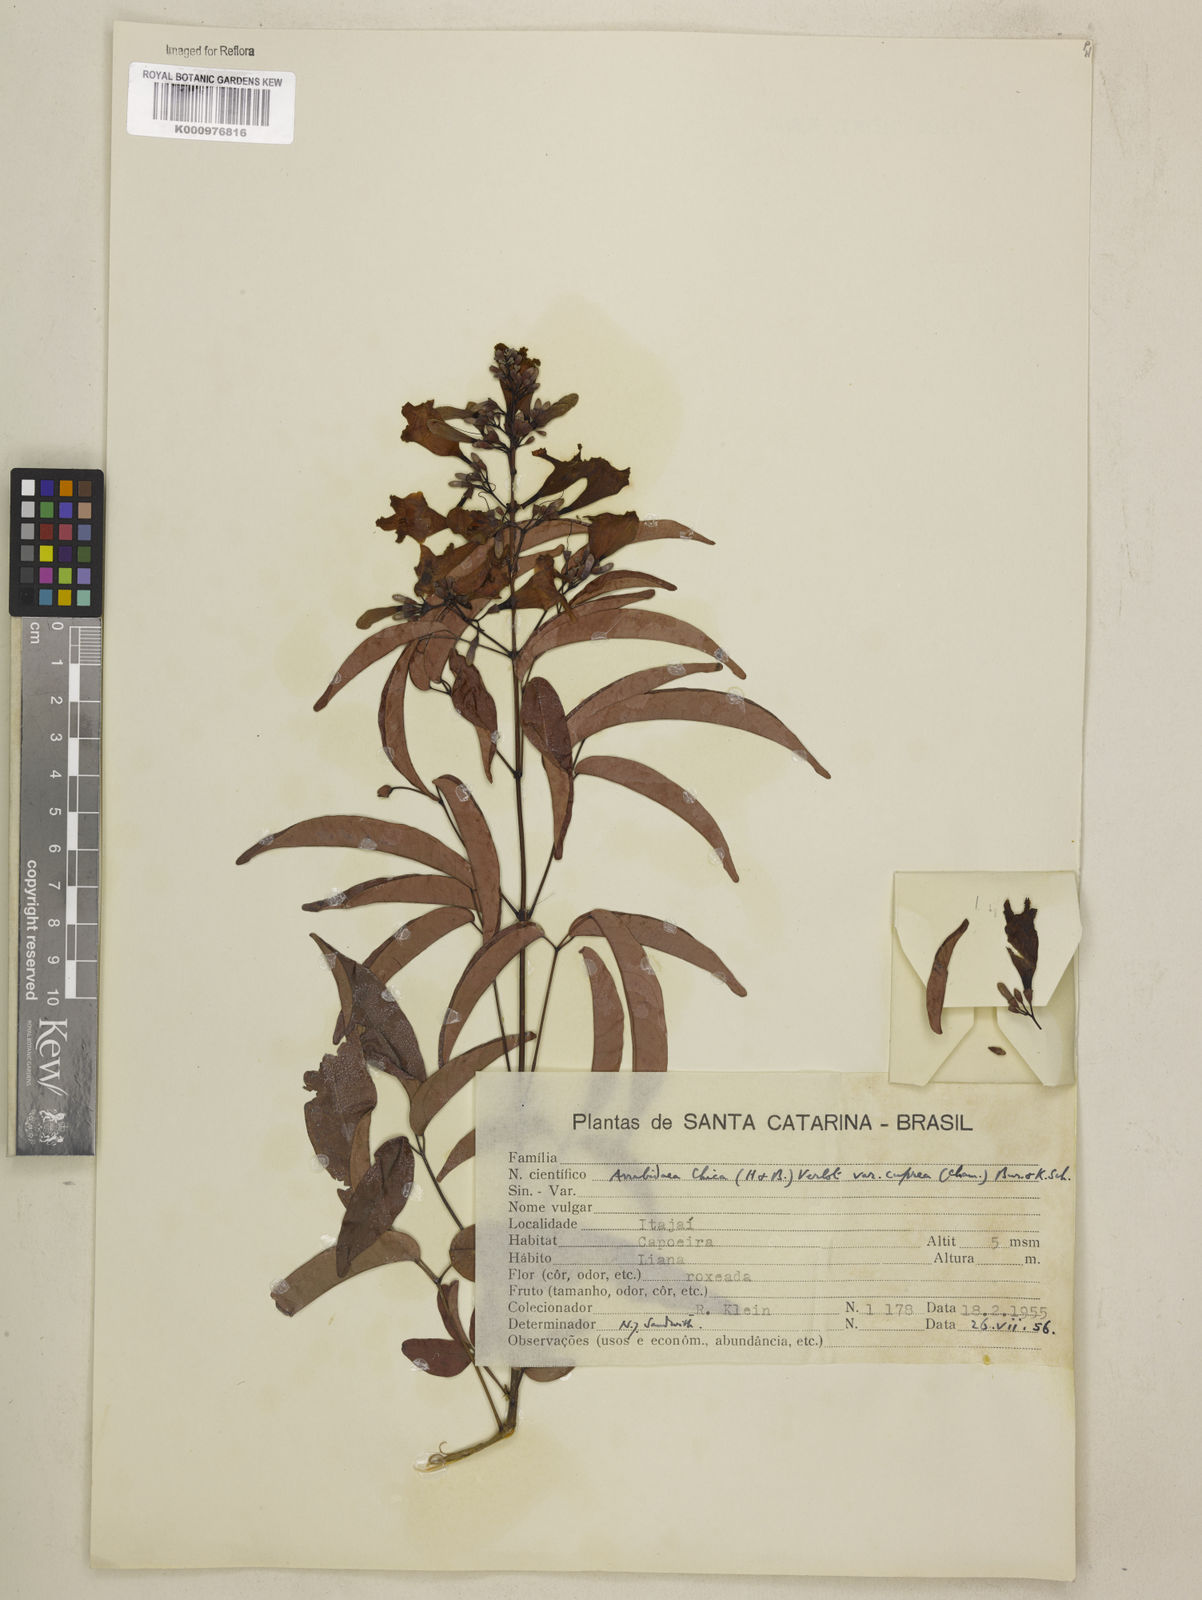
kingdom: Plantae
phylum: Tracheophyta
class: Magnoliopsida
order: Lamiales
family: Bignoniaceae
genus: Fridericia
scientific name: Fridericia chica
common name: Cricketvine
